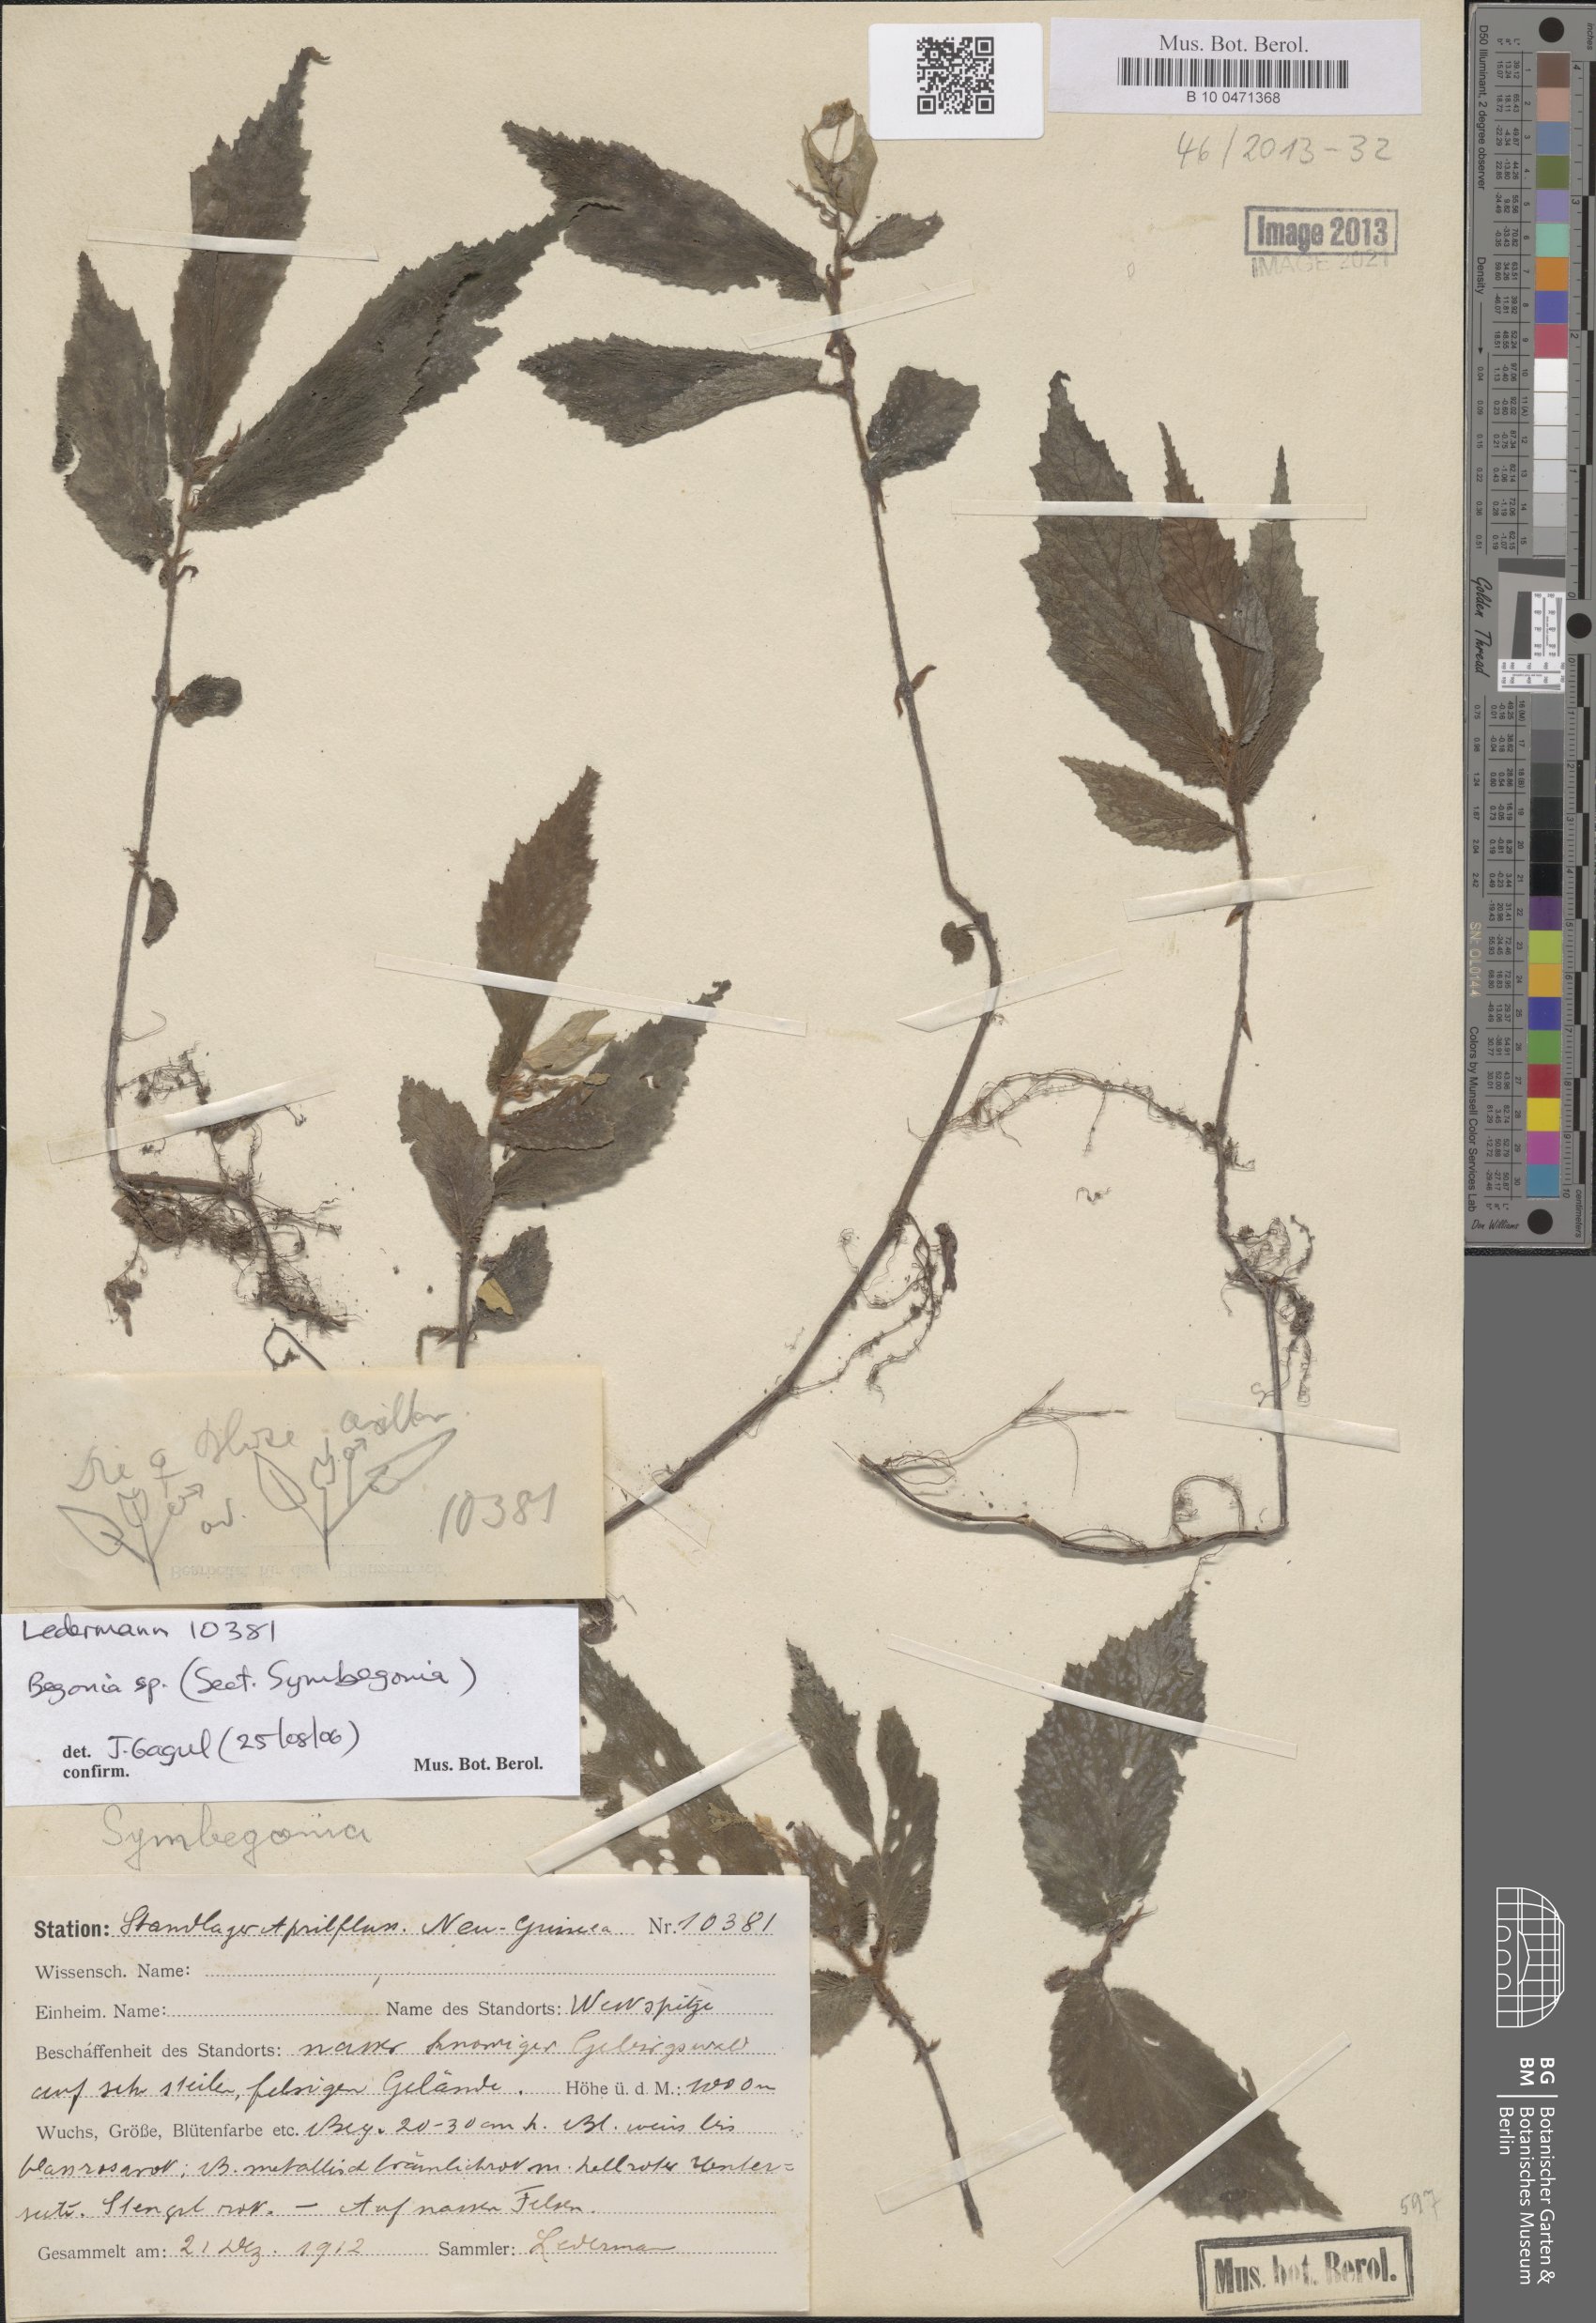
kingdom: Plantae
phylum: Tracheophyta
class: Magnoliopsida
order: Cucurbitales
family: Begoniaceae
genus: Begonia
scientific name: Begonia
